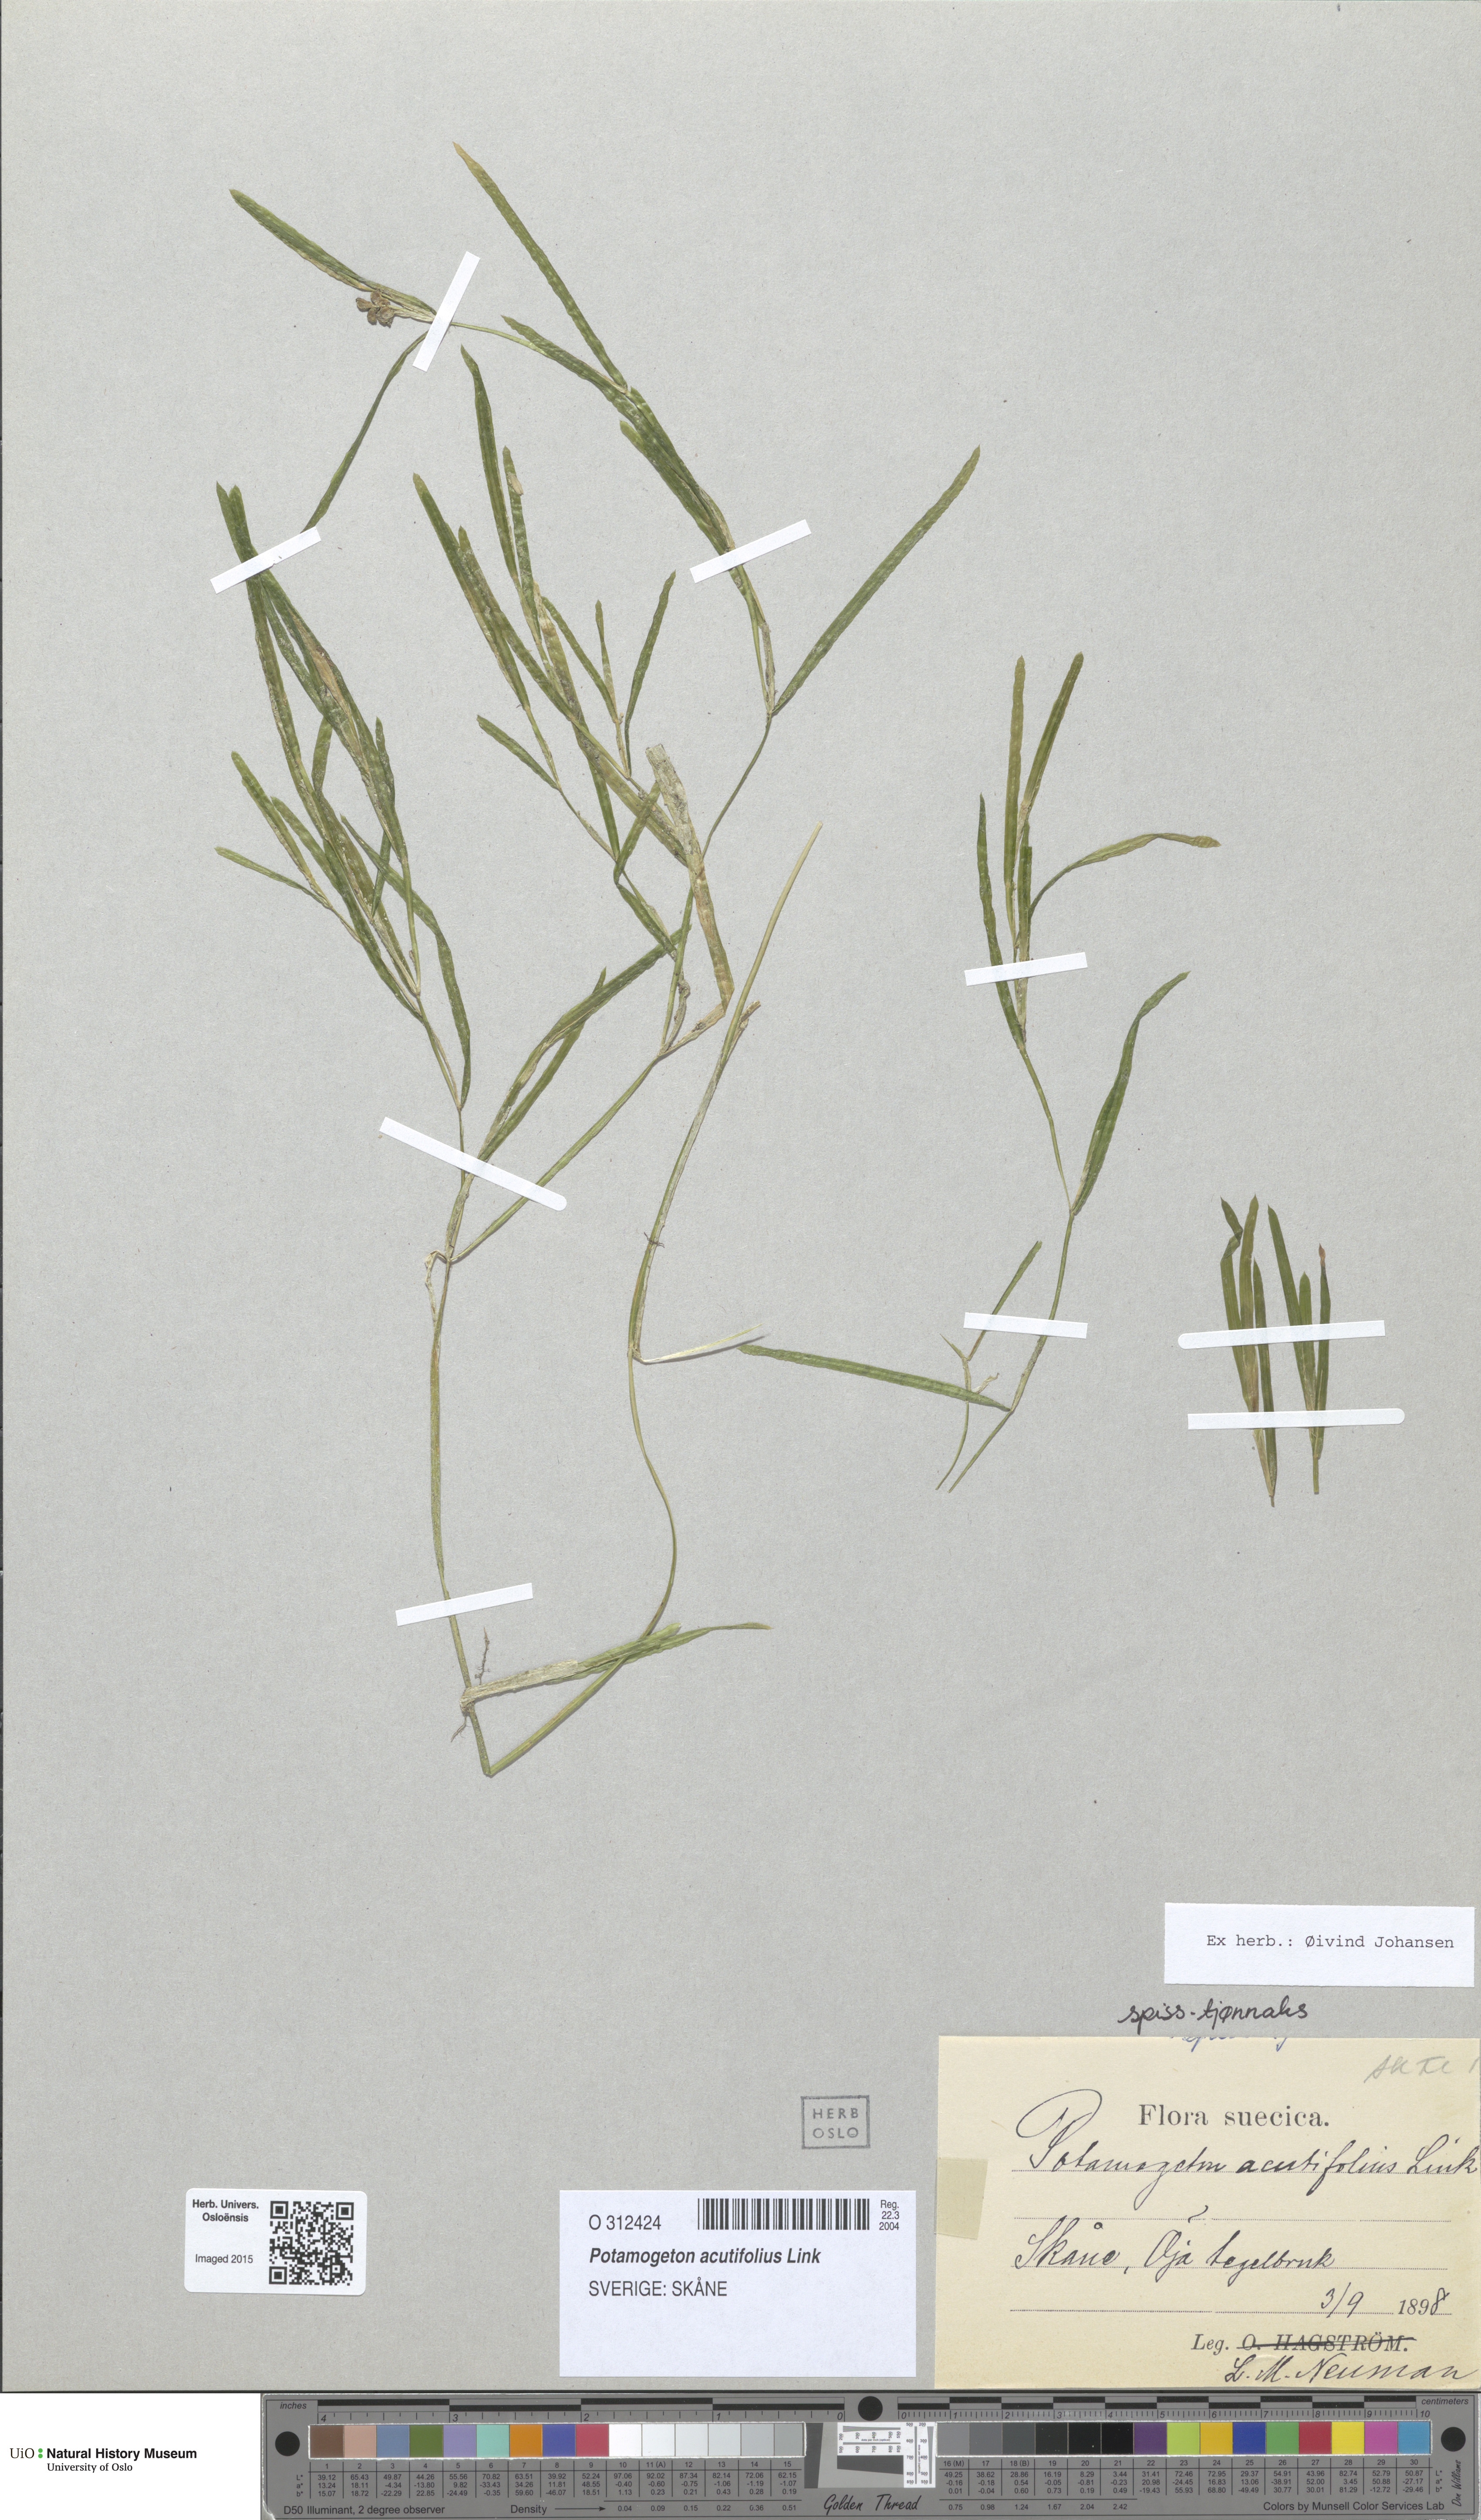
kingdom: Plantae
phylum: Tracheophyta
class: Liliopsida
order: Alismatales
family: Potamogetonaceae
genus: Potamogeton
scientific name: Potamogeton acutifolius
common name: Sharp-leaved pondweed
